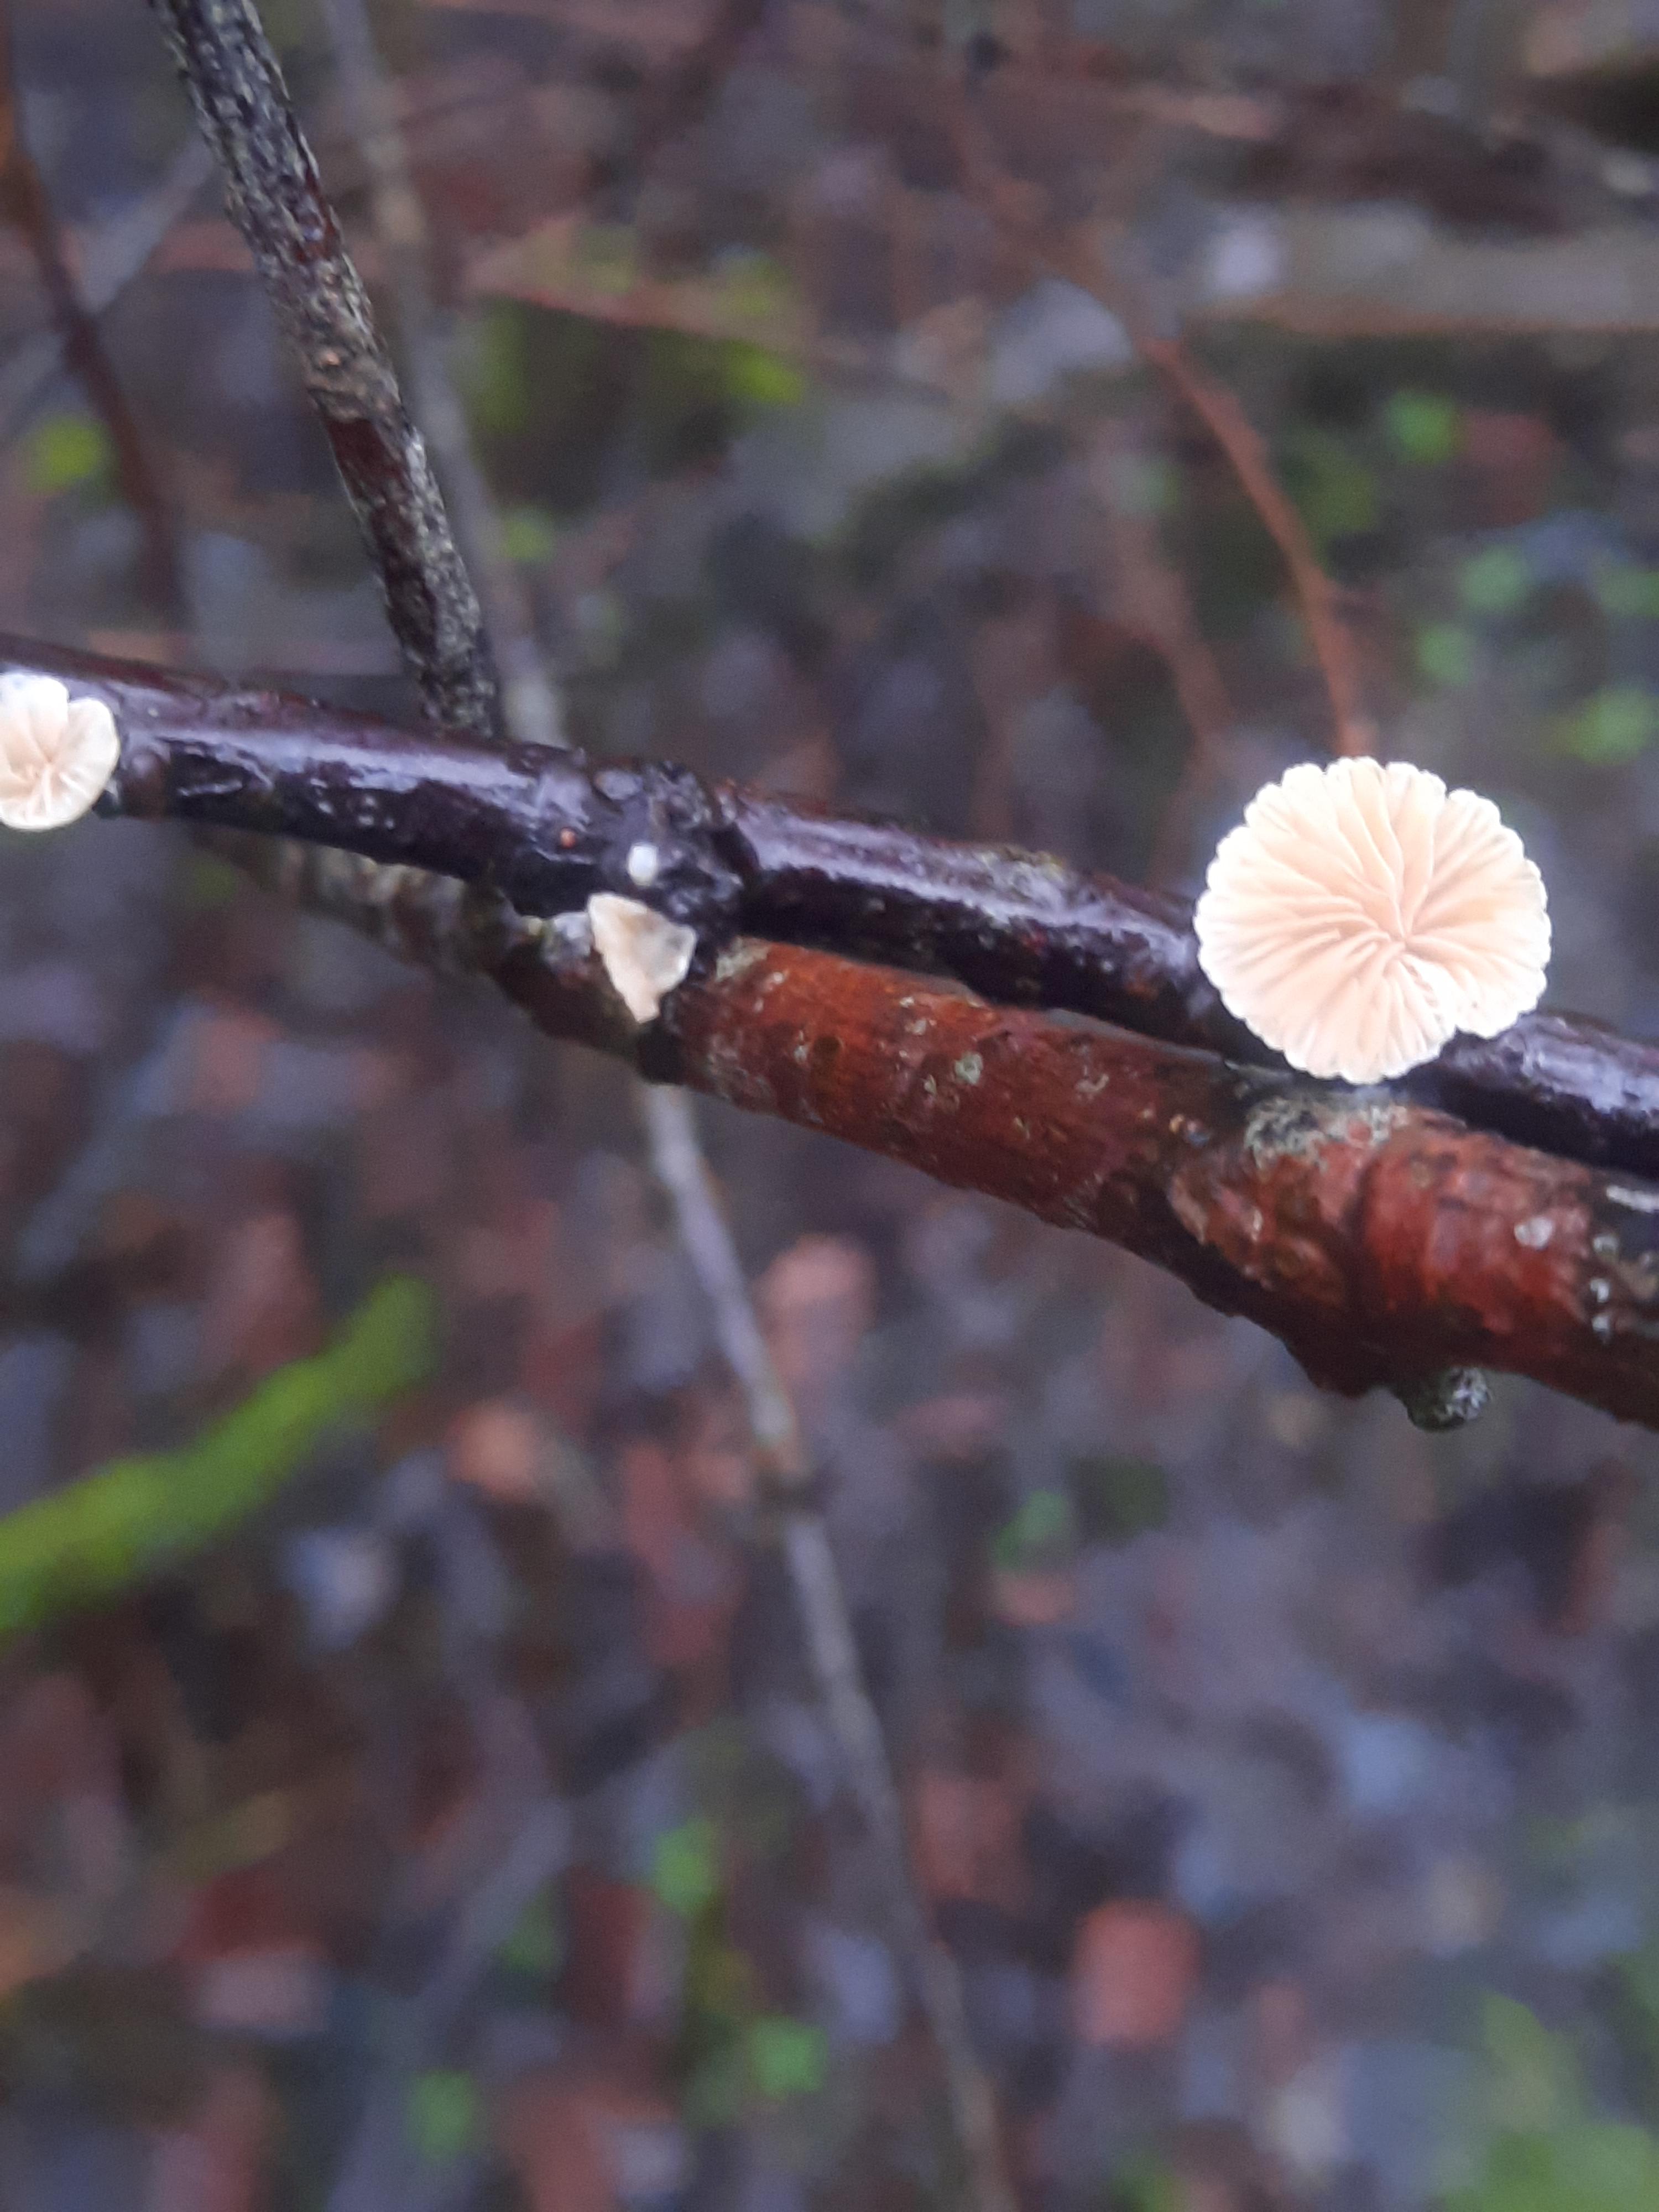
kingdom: Fungi
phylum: Basidiomycota
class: Agaricomycetes
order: Agaricales
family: Crepidotaceae
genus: Crepidotus
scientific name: Crepidotus
